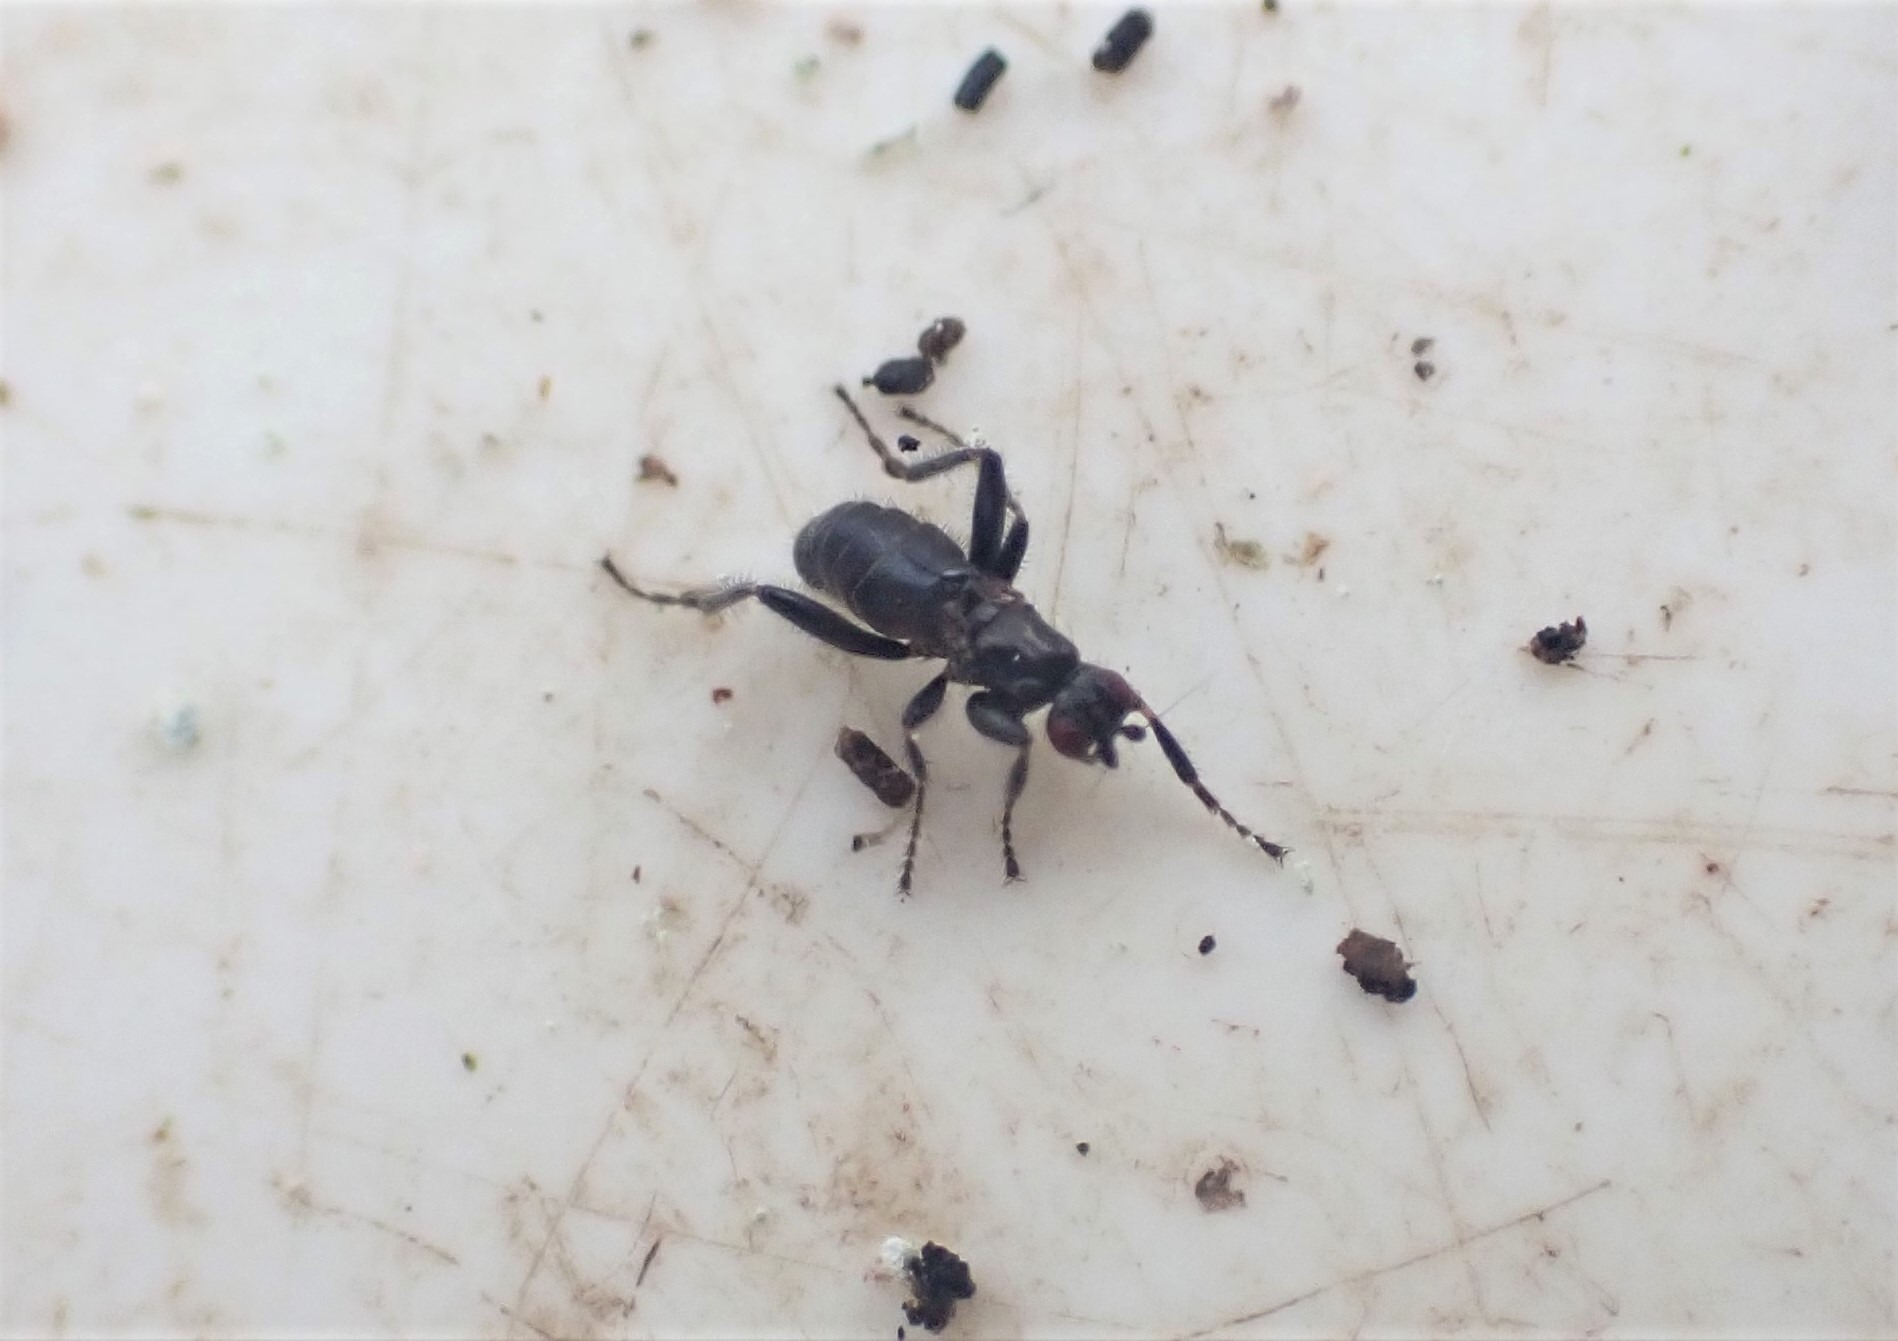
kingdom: Animalia
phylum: Arthropoda
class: Insecta
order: Diptera
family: Sphaeroceridae
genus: Crumomyia
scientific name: Crumomyia pedestris
